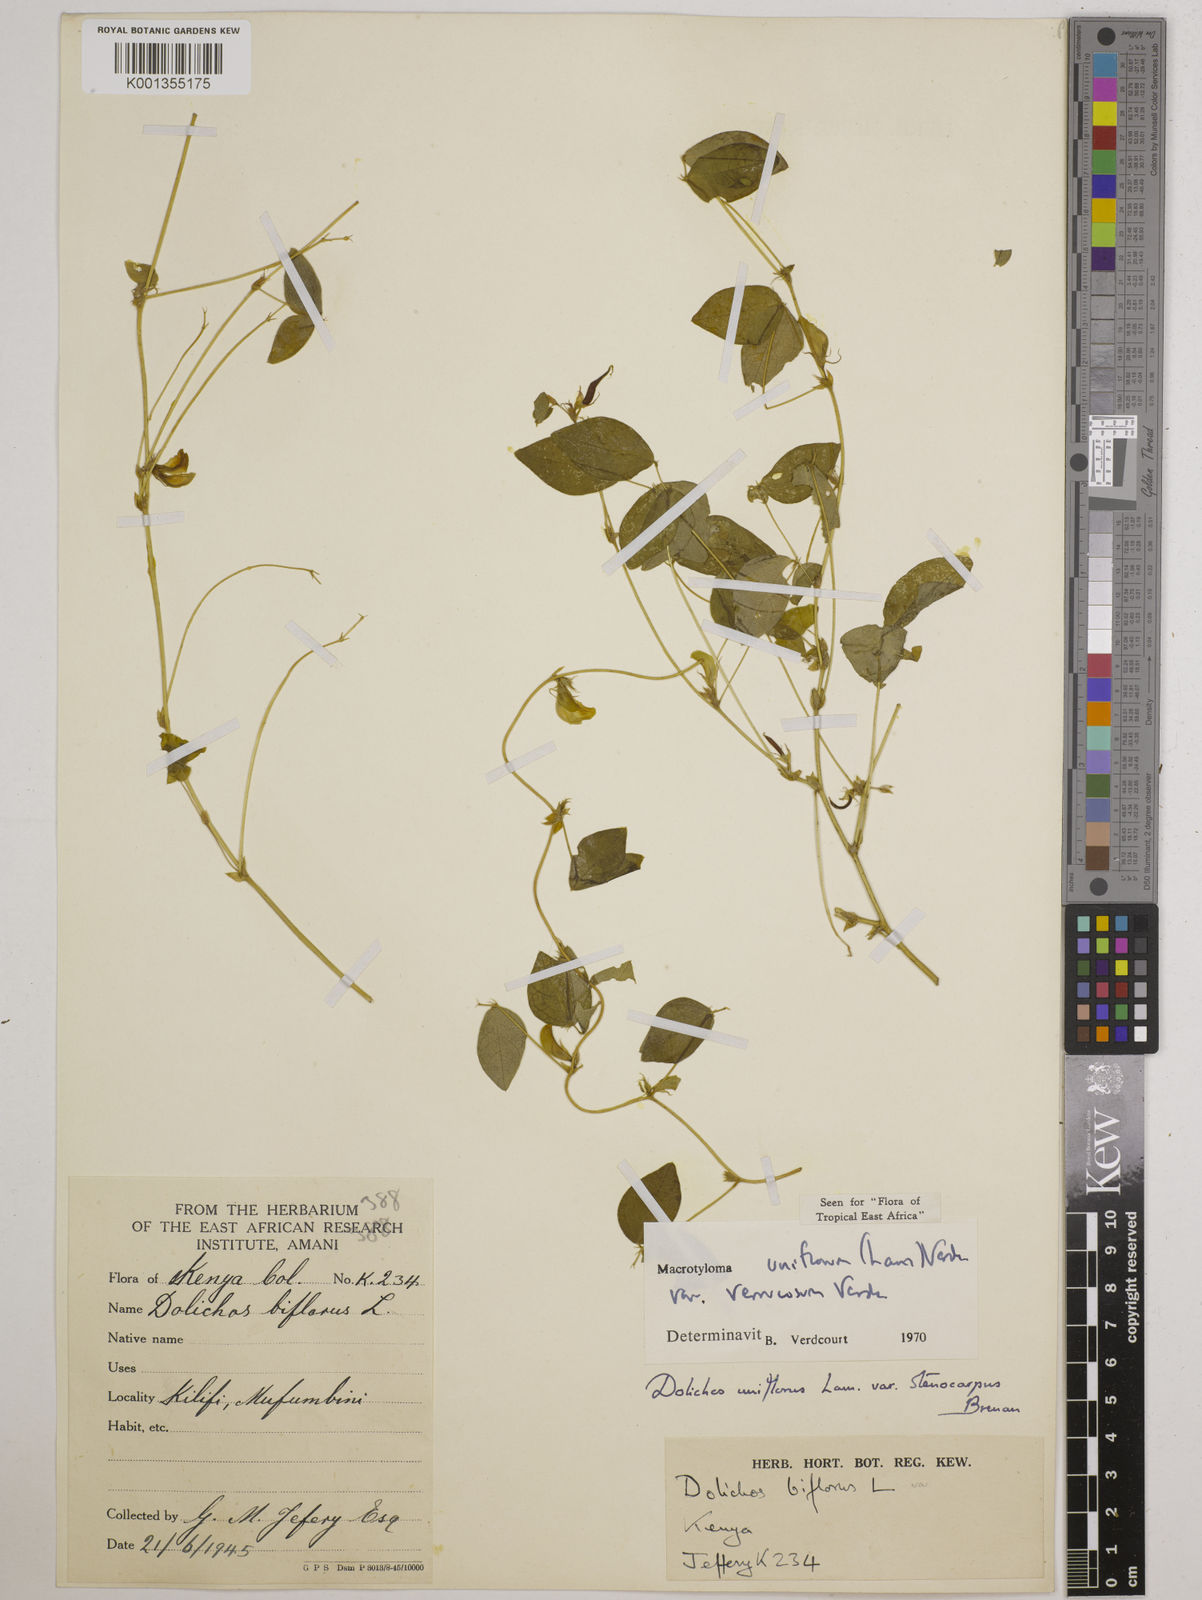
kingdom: Plantae
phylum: Tracheophyta
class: Magnoliopsida
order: Fabales
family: Fabaceae
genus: Macrotyloma
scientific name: Macrotyloma
